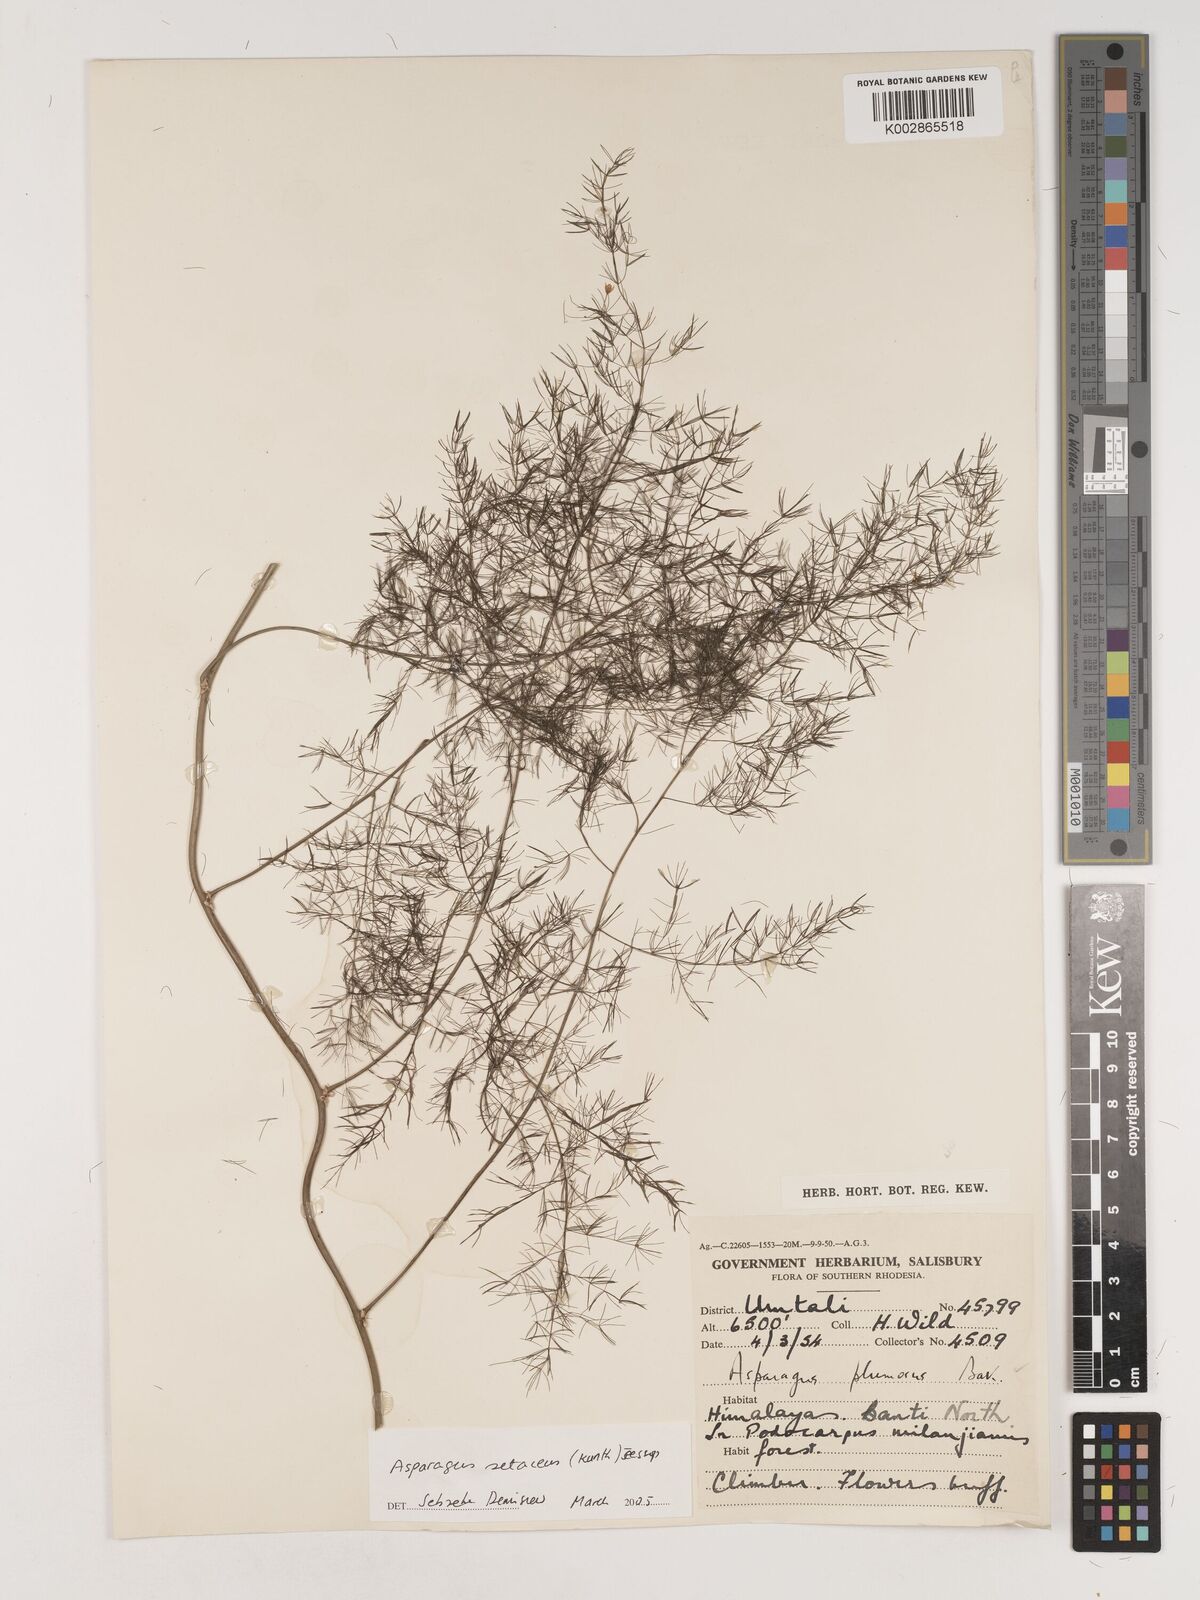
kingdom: Plantae
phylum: Tracheophyta
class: Liliopsida
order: Asparagales
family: Asparagaceae
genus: Asparagus
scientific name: Asparagus setaceus
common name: Common asparagus fern
